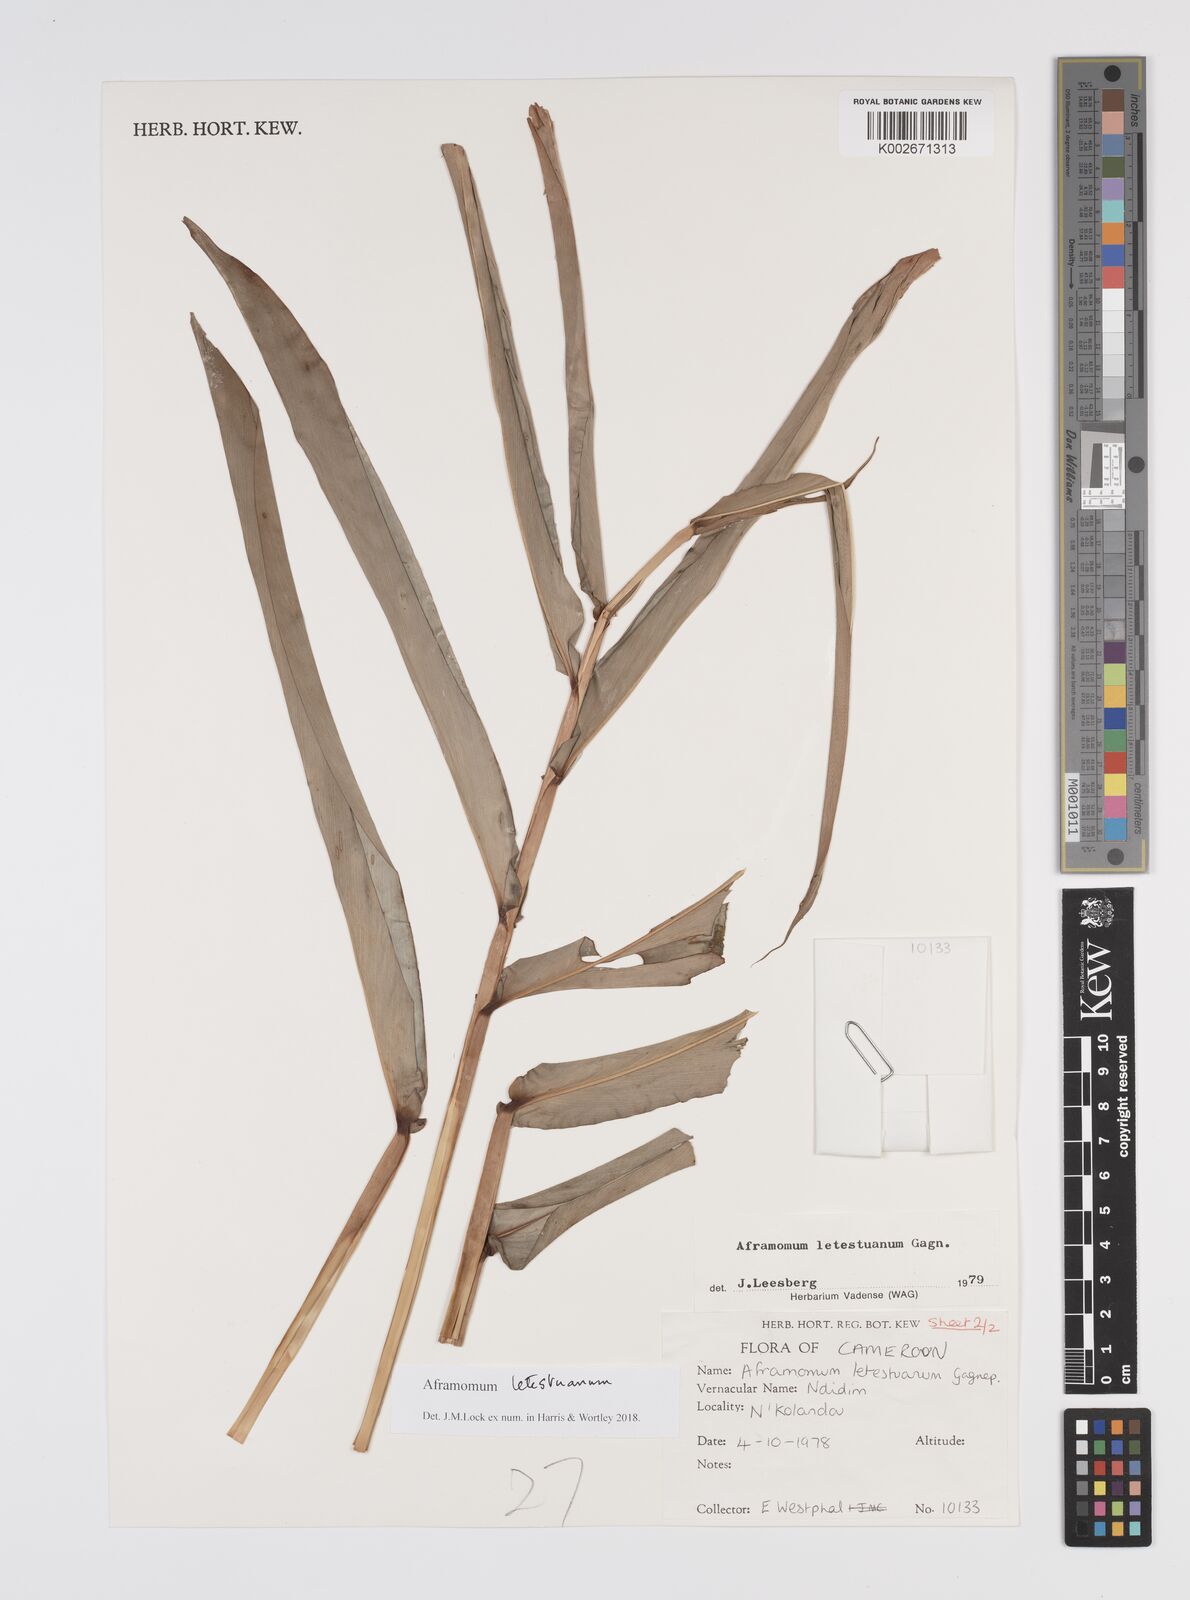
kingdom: Plantae
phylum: Tracheophyta
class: Liliopsida
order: Zingiberales
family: Zingiberaceae
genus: Aframomum
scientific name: Aframomum letestuanum
